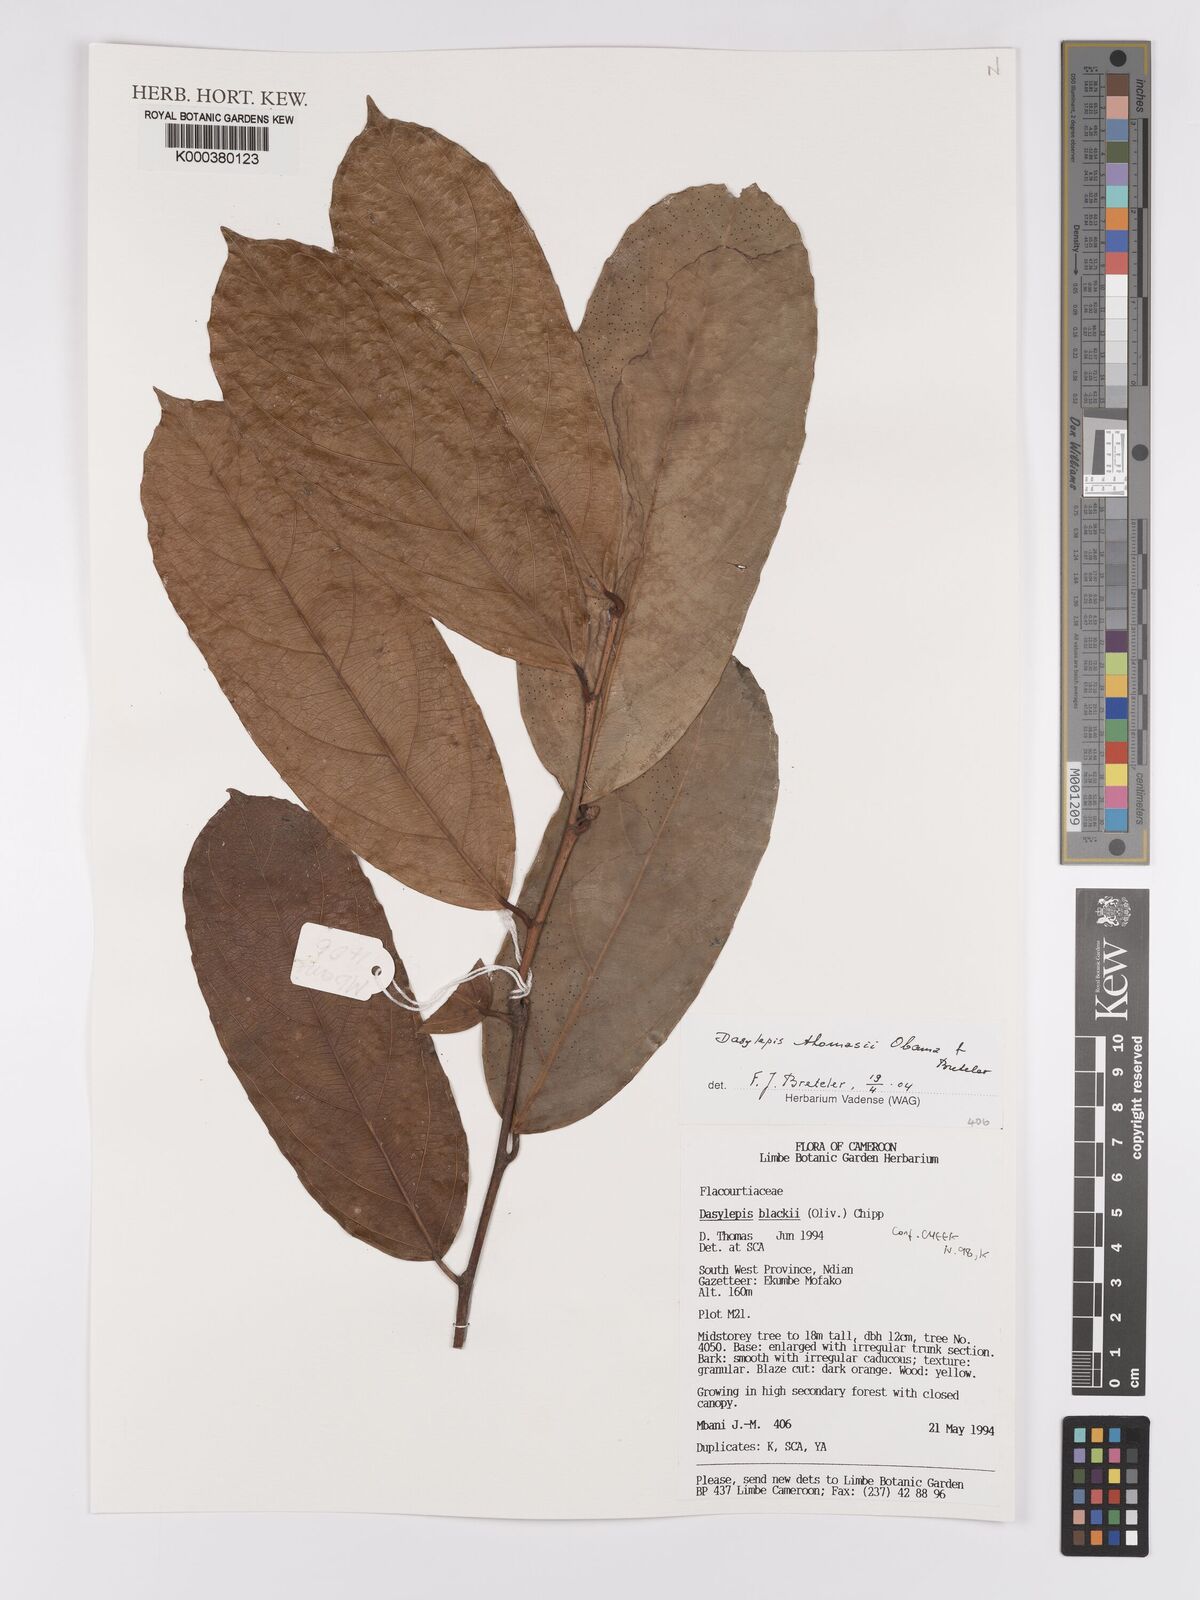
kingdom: Plantae
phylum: Tracheophyta
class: Magnoliopsida
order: Malpighiales
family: Achariaceae
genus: Dasylepis
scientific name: Dasylepis thomasii
